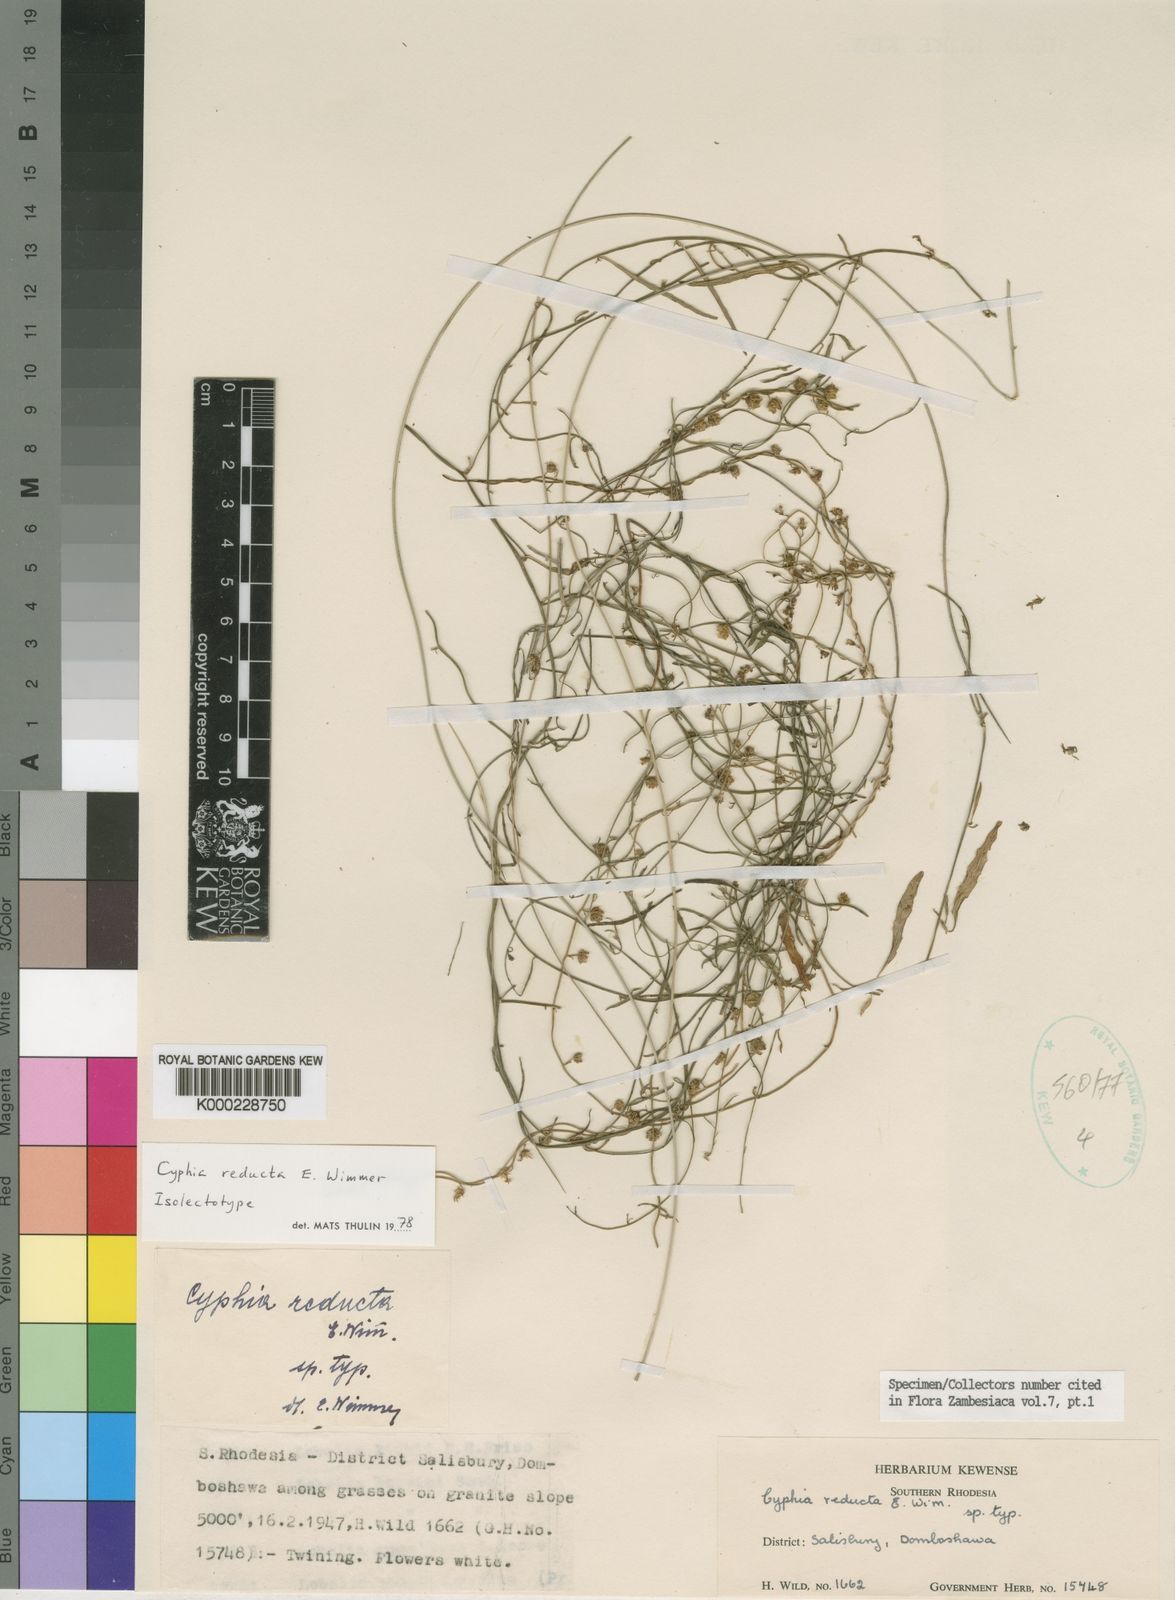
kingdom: Plantae
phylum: Tracheophyta
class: Magnoliopsida
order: Asterales
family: Campanulaceae
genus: Cyphia
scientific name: Cyphia reducta
